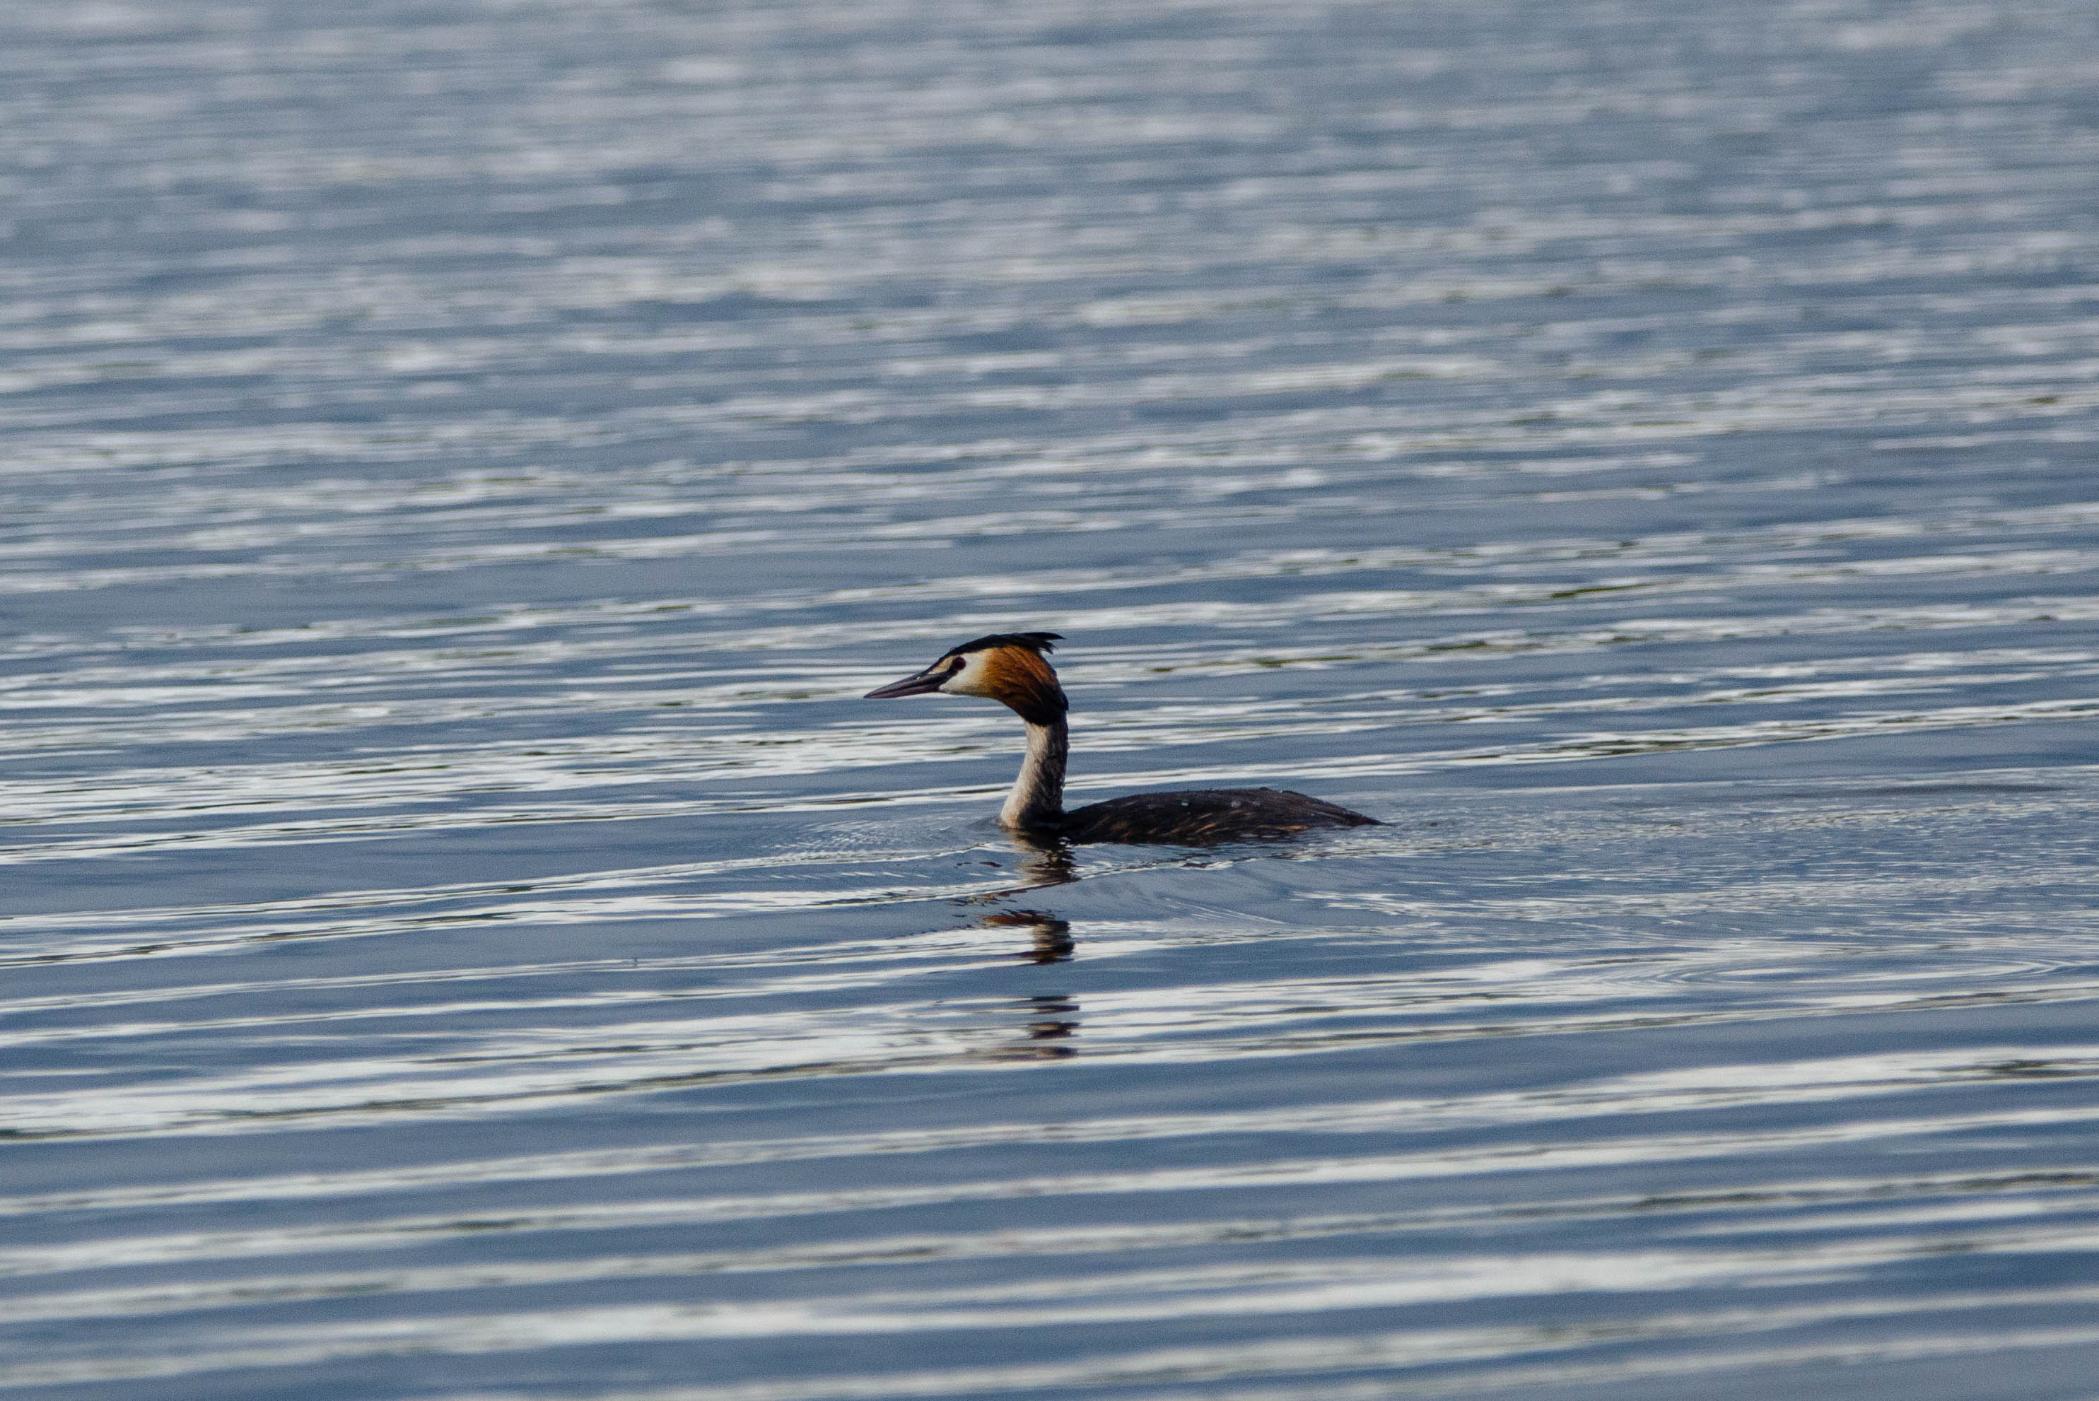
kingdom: Animalia
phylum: Chordata
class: Aves
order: Podicipediformes
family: Podicipedidae
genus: Podiceps
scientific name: Podiceps cristatus
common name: Toppet lappedykker
